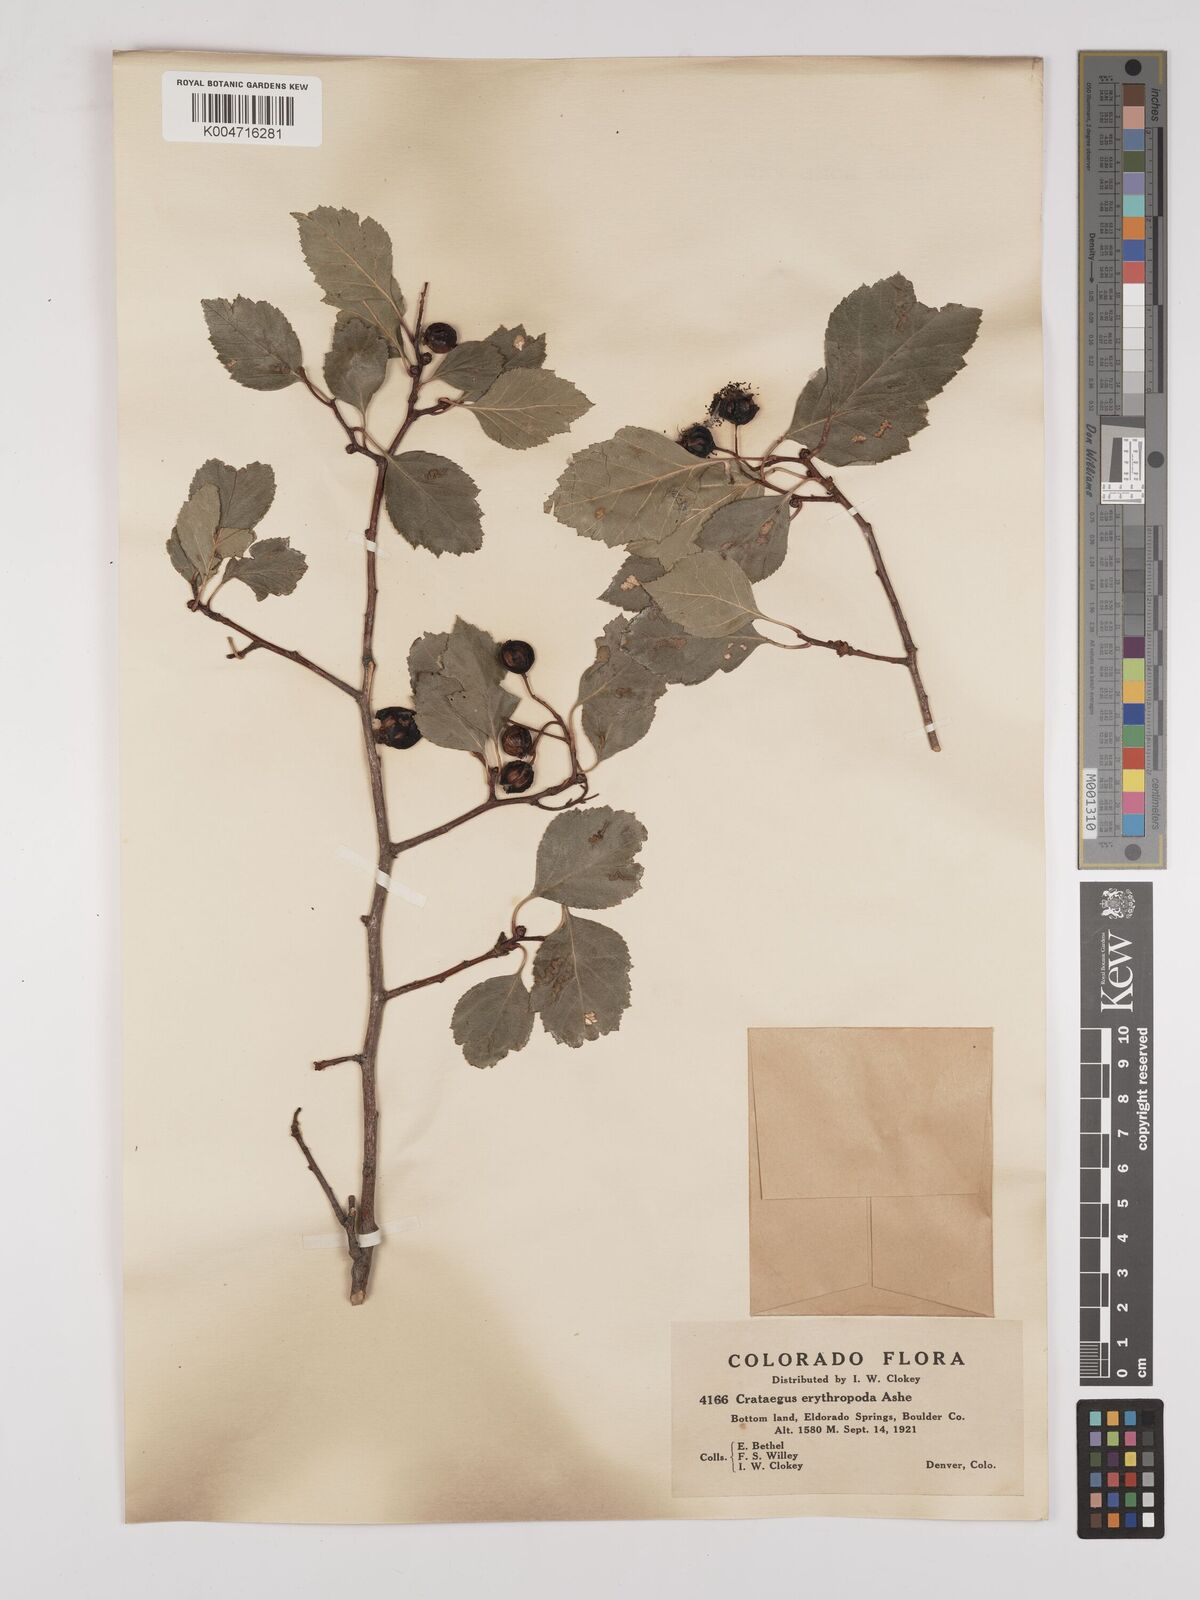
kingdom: Plantae
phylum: Tracheophyta
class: Magnoliopsida
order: Rosales
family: Rosaceae
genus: Crataegus
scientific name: Crataegus erythropoda
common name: Cerro hawthorn
